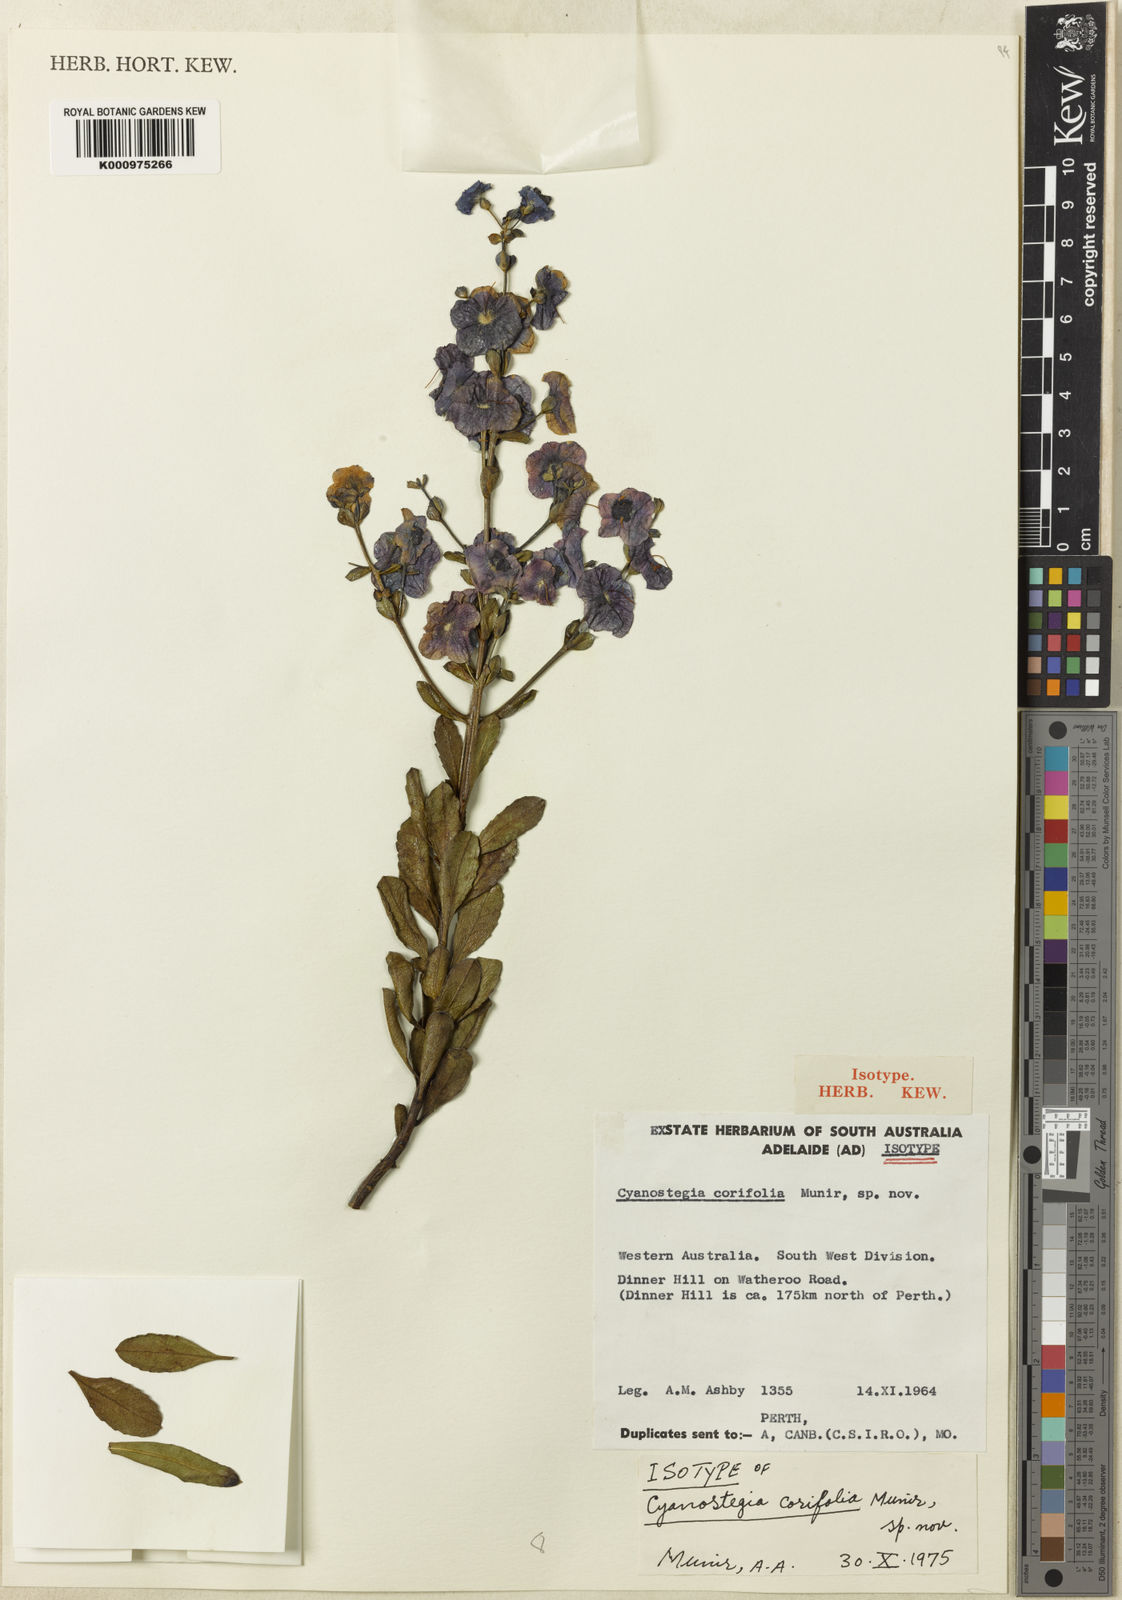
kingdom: Plantae
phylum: Tracheophyta
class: Magnoliopsida
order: Lamiales
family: Lamiaceae
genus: Cyanostegia
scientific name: Cyanostegia corifolia
